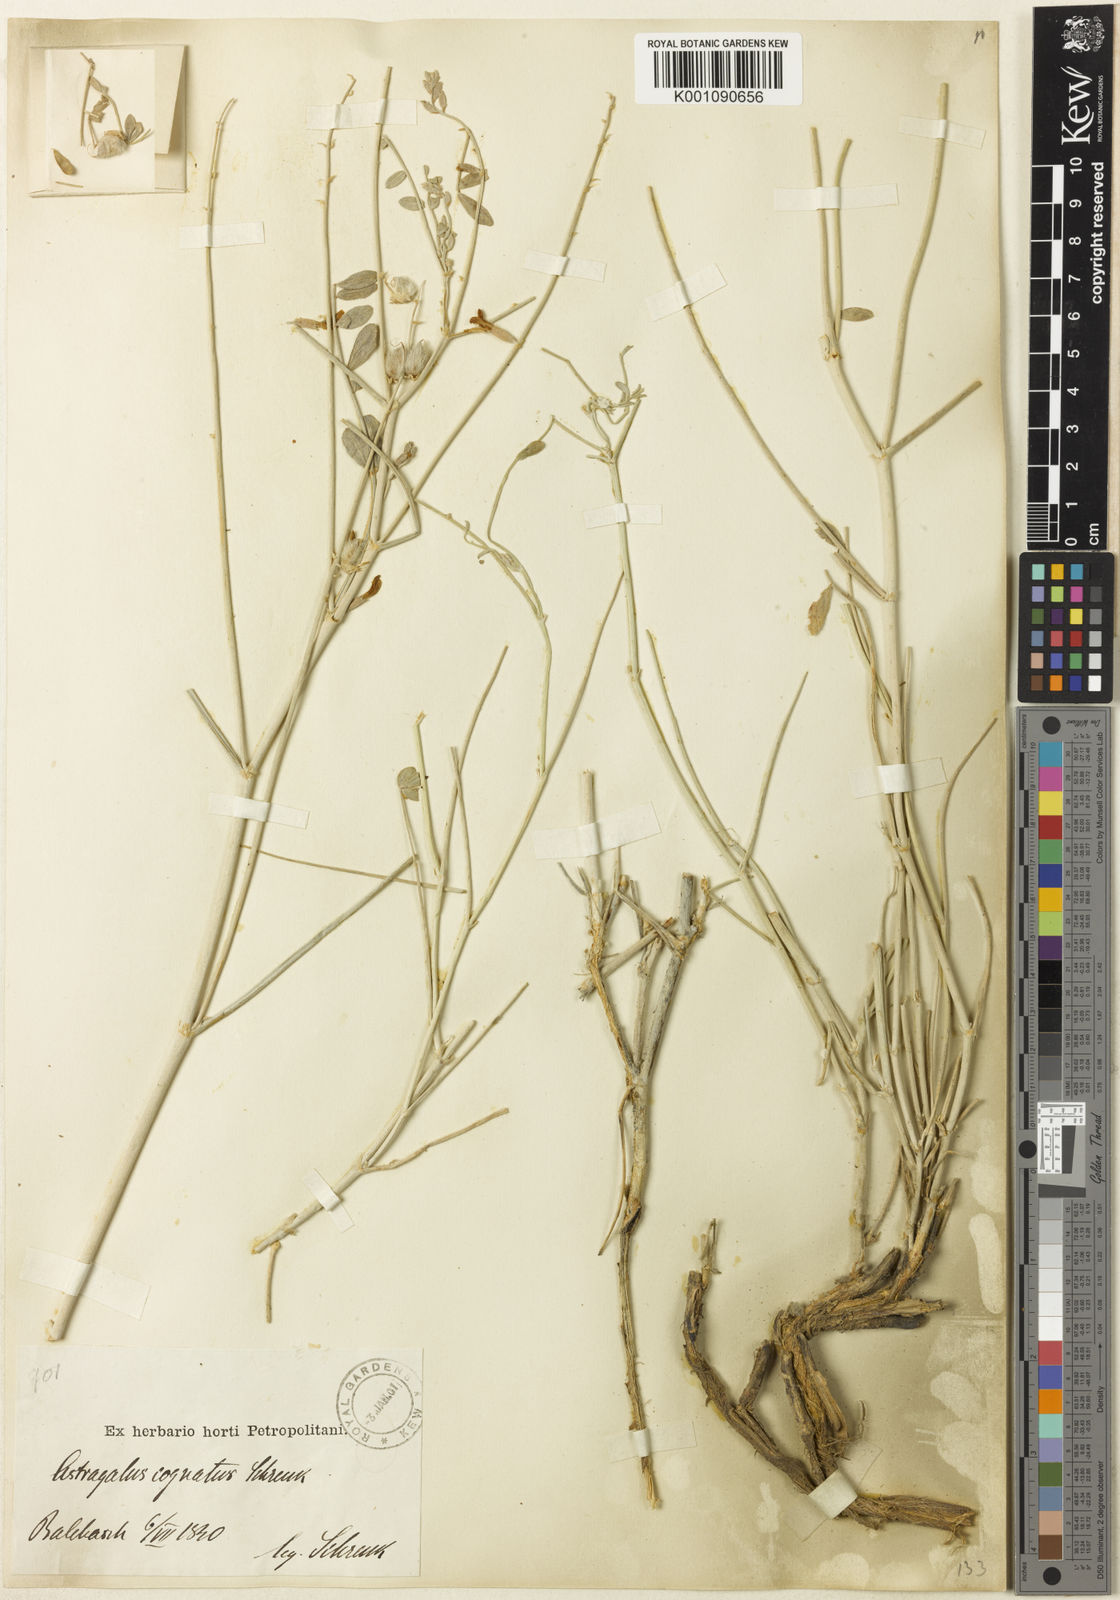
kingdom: Plantae
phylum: Tracheophyta
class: Magnoliopsida
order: Fabales
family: Fabaceae
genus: Astragalus
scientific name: Astragalus
